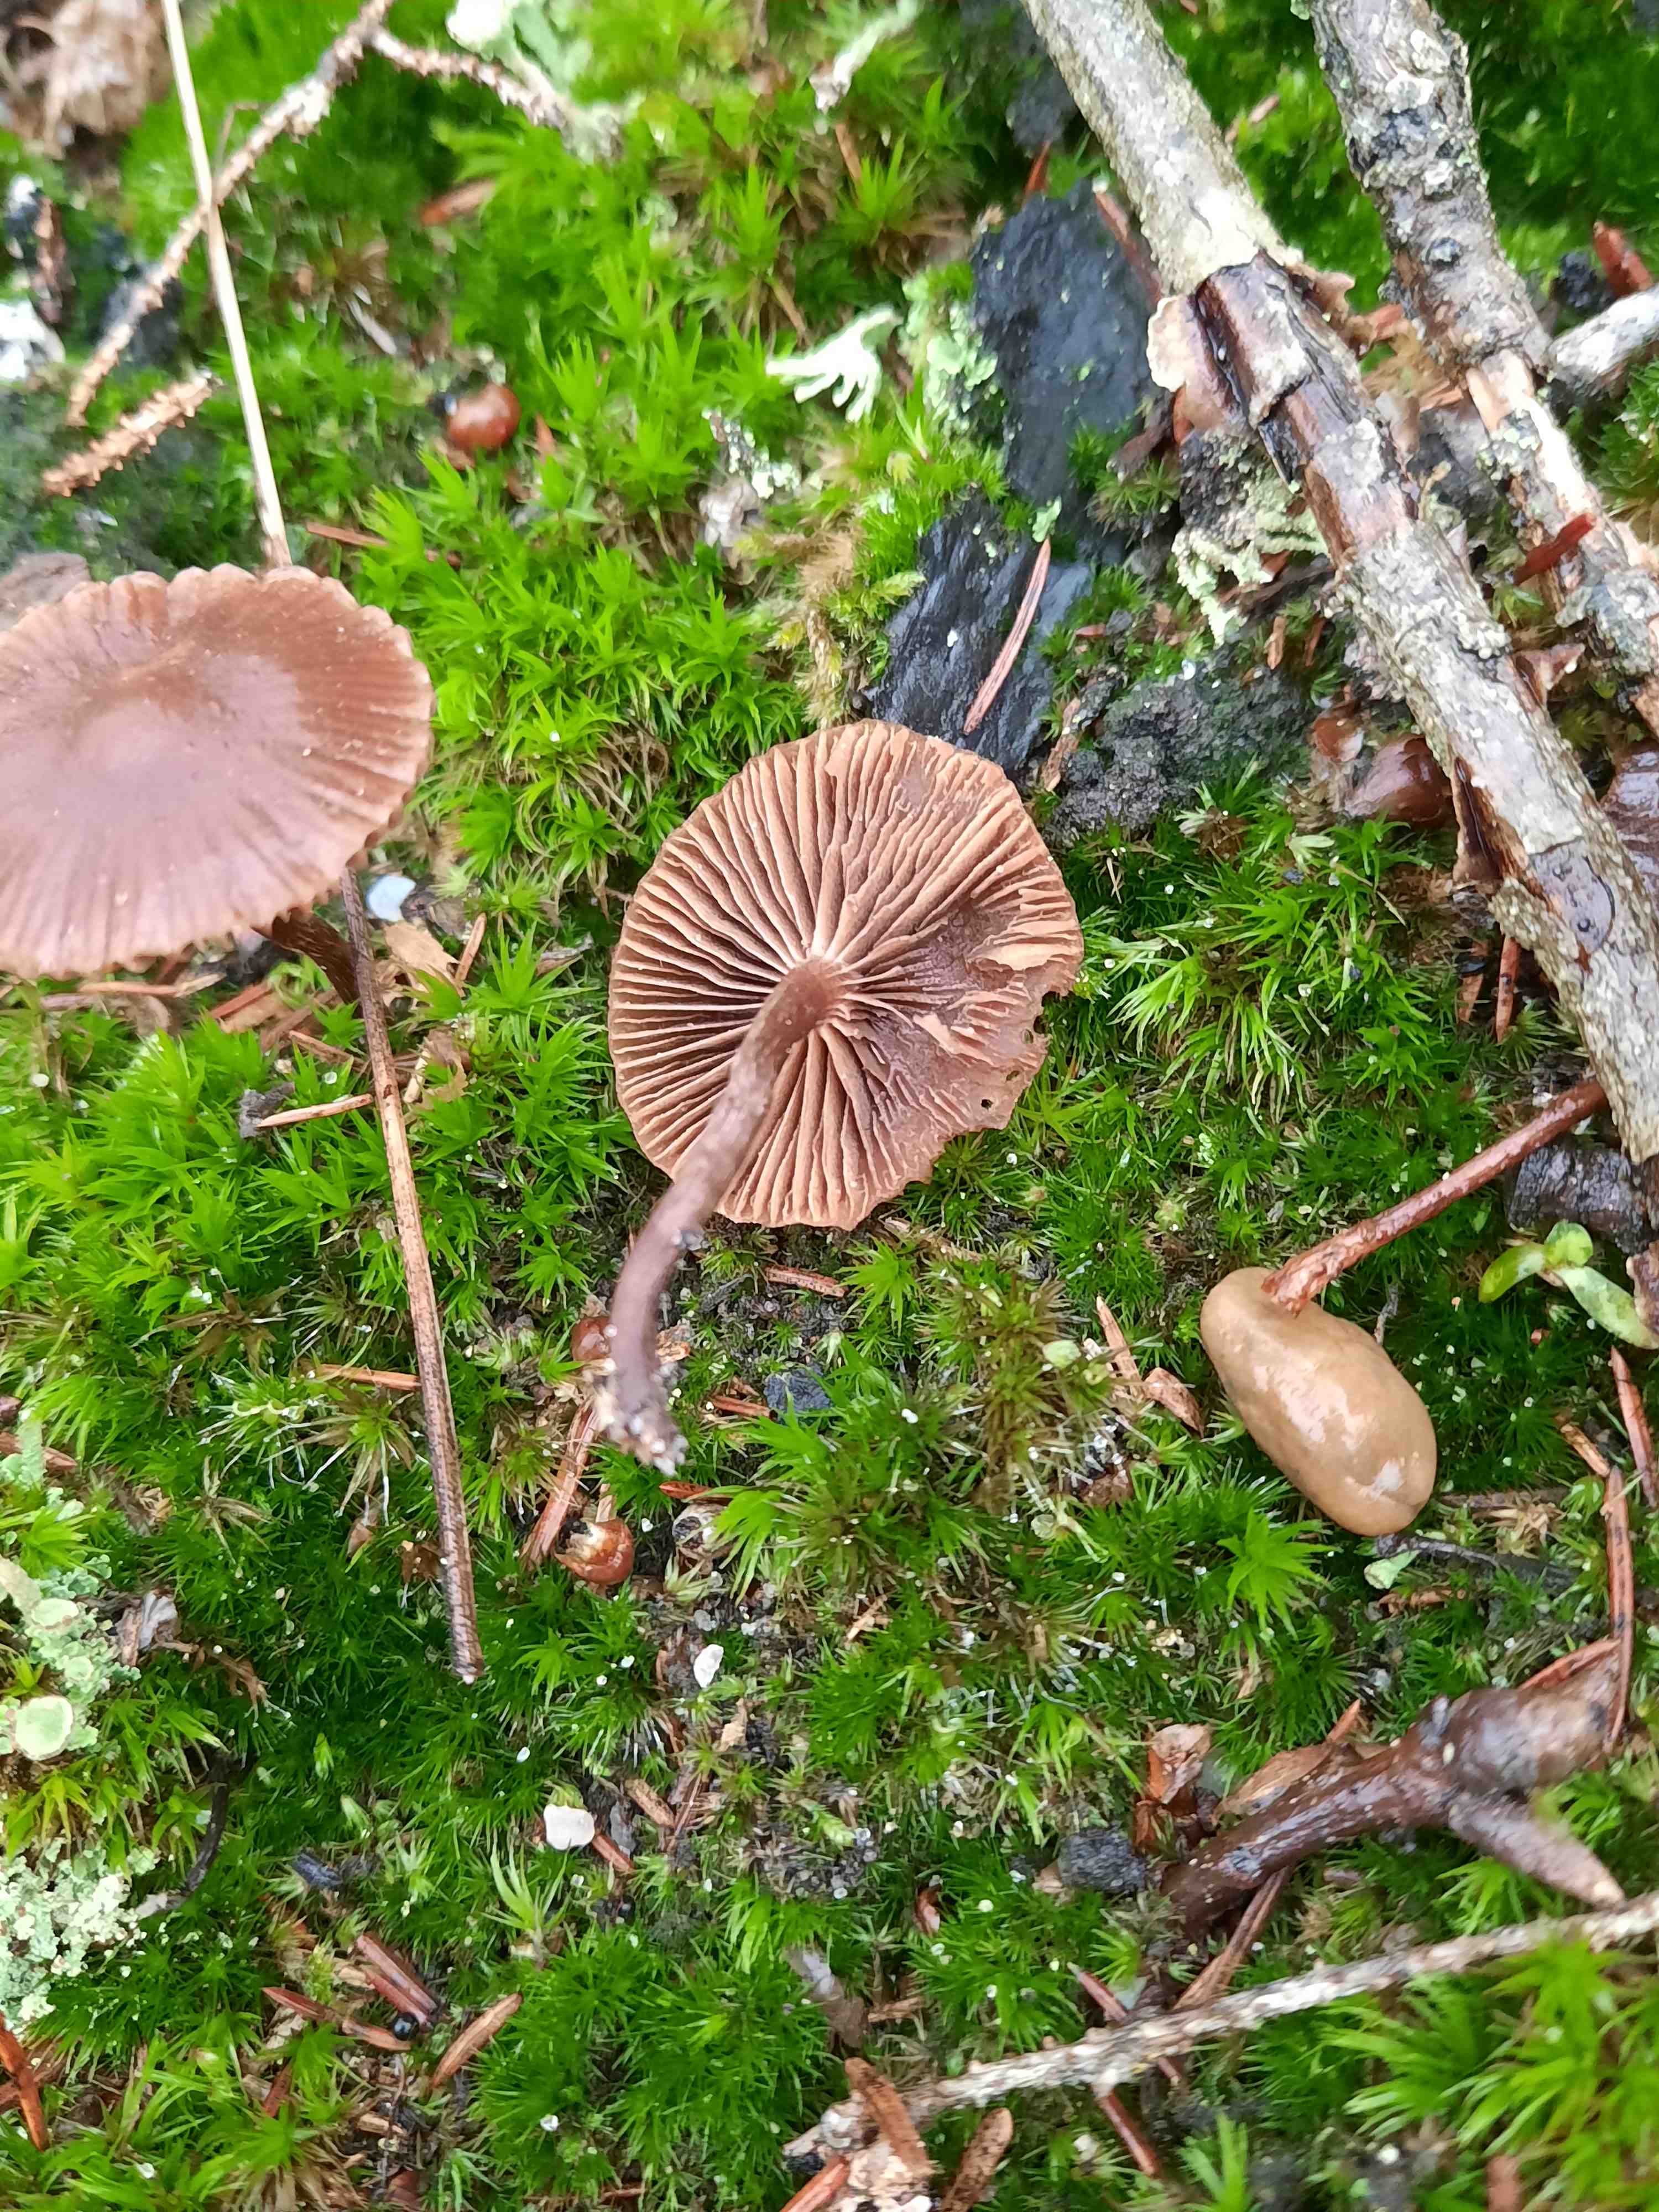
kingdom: Fungi
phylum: Basidiomycota
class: Agaricomycetes
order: Agaricales
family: Strophariaceae
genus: Deconica
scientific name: Deconica montana
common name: rødbrun stråhat
